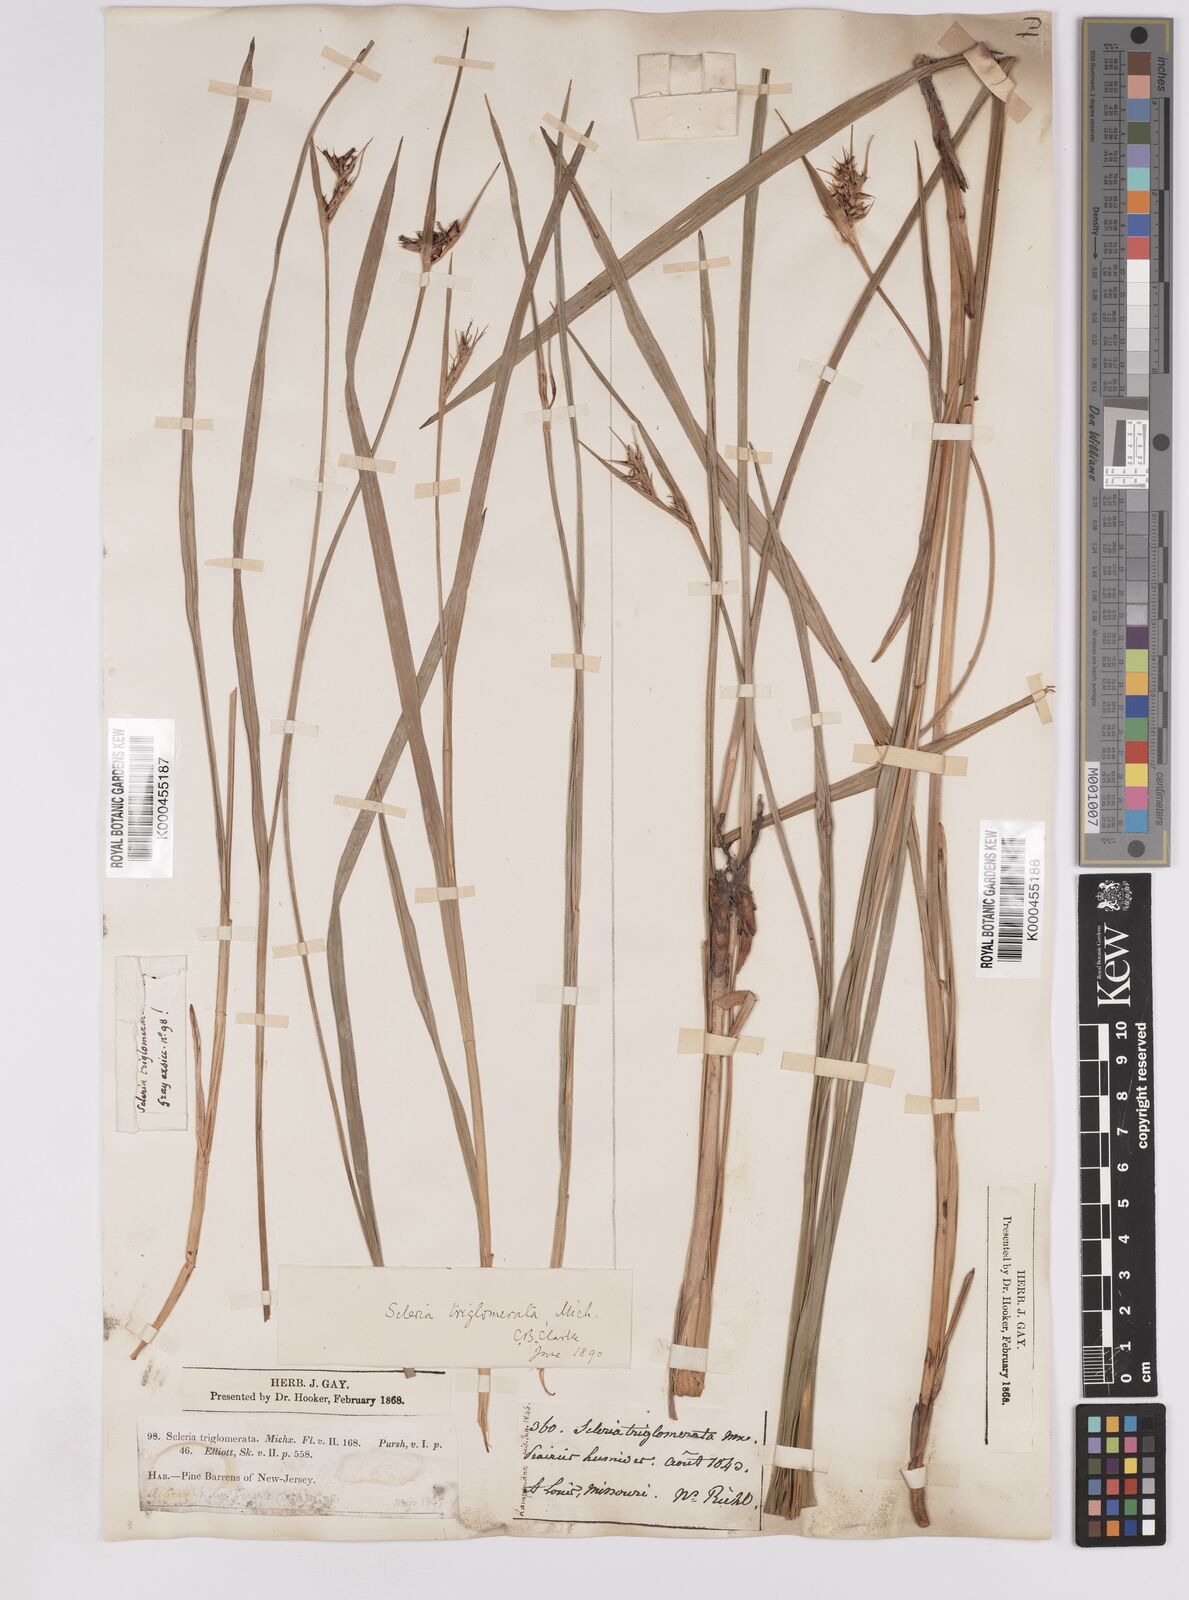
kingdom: Plantae
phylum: Tracheophyta
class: Liliopsida
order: Poales
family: Cyperaceae
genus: Scleria
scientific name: Scleria triglomerata
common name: Whip nutrush
